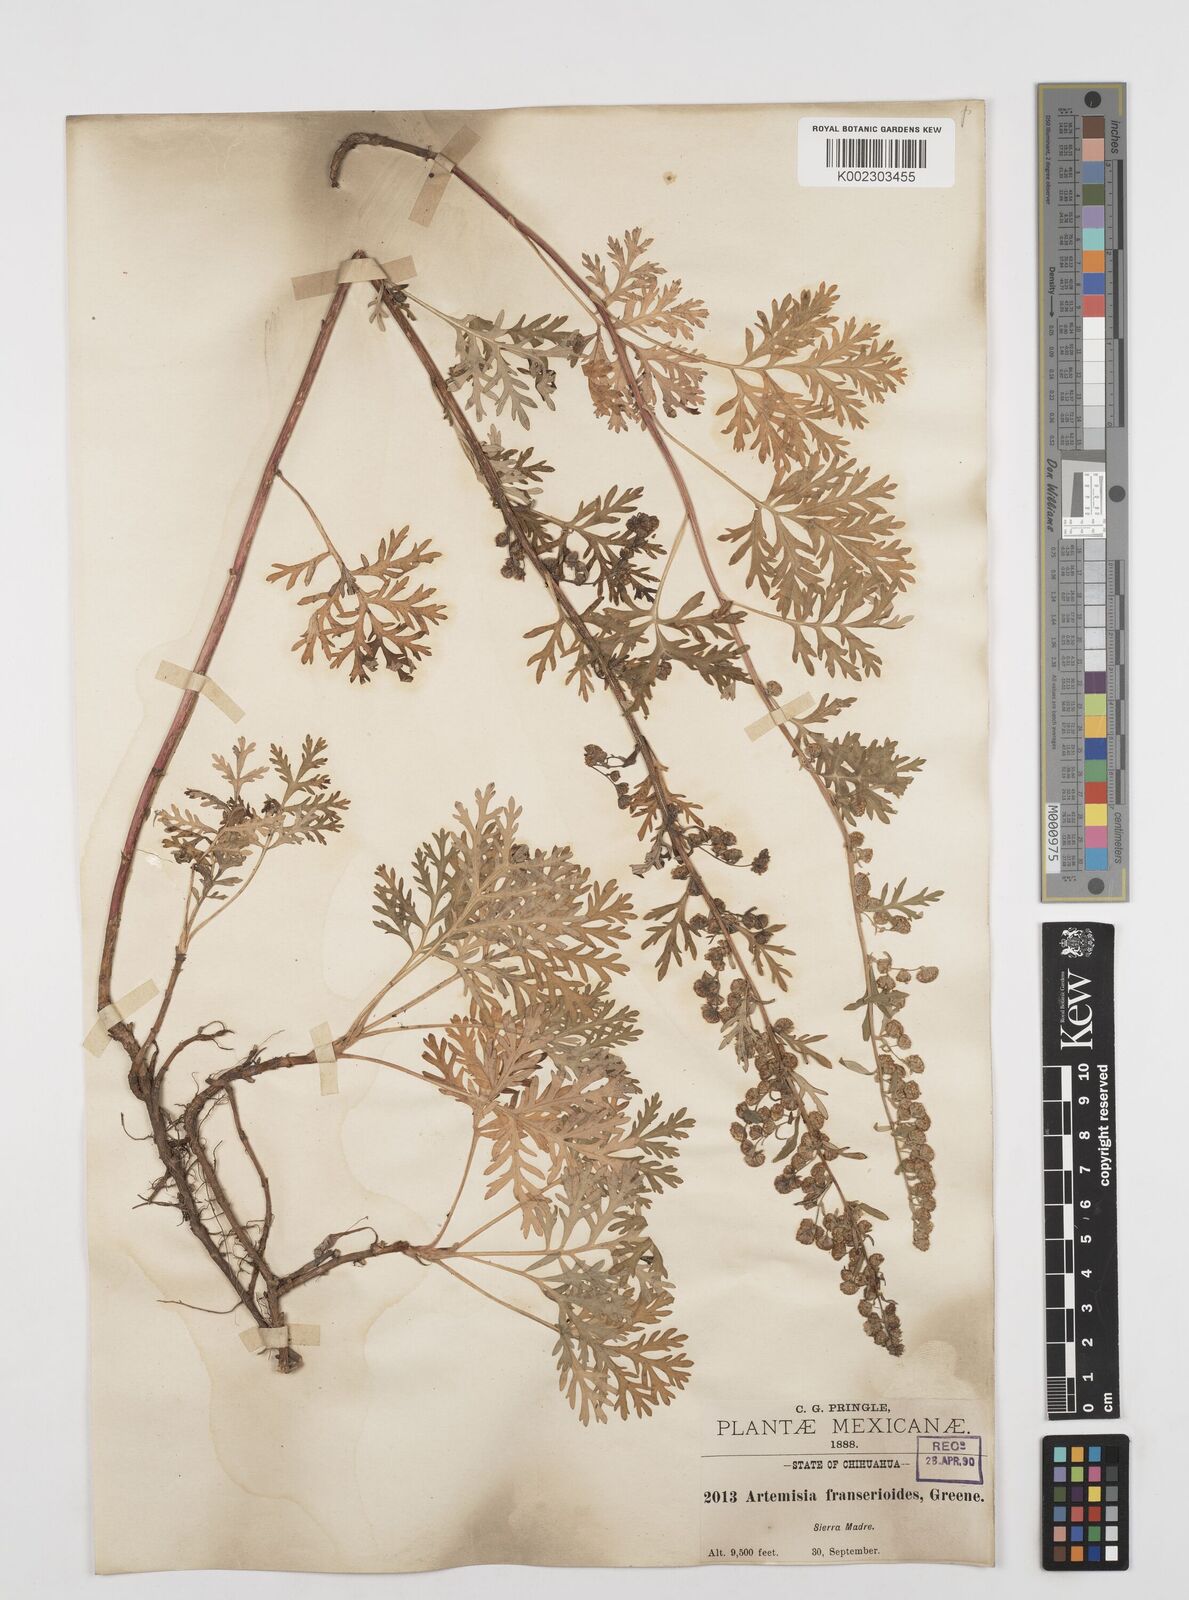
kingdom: Plantae
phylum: Tracheophyta
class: Magnoliopsida
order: Asterales
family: Asteraceae
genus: Artemisia
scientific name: Artemisia franserioides
